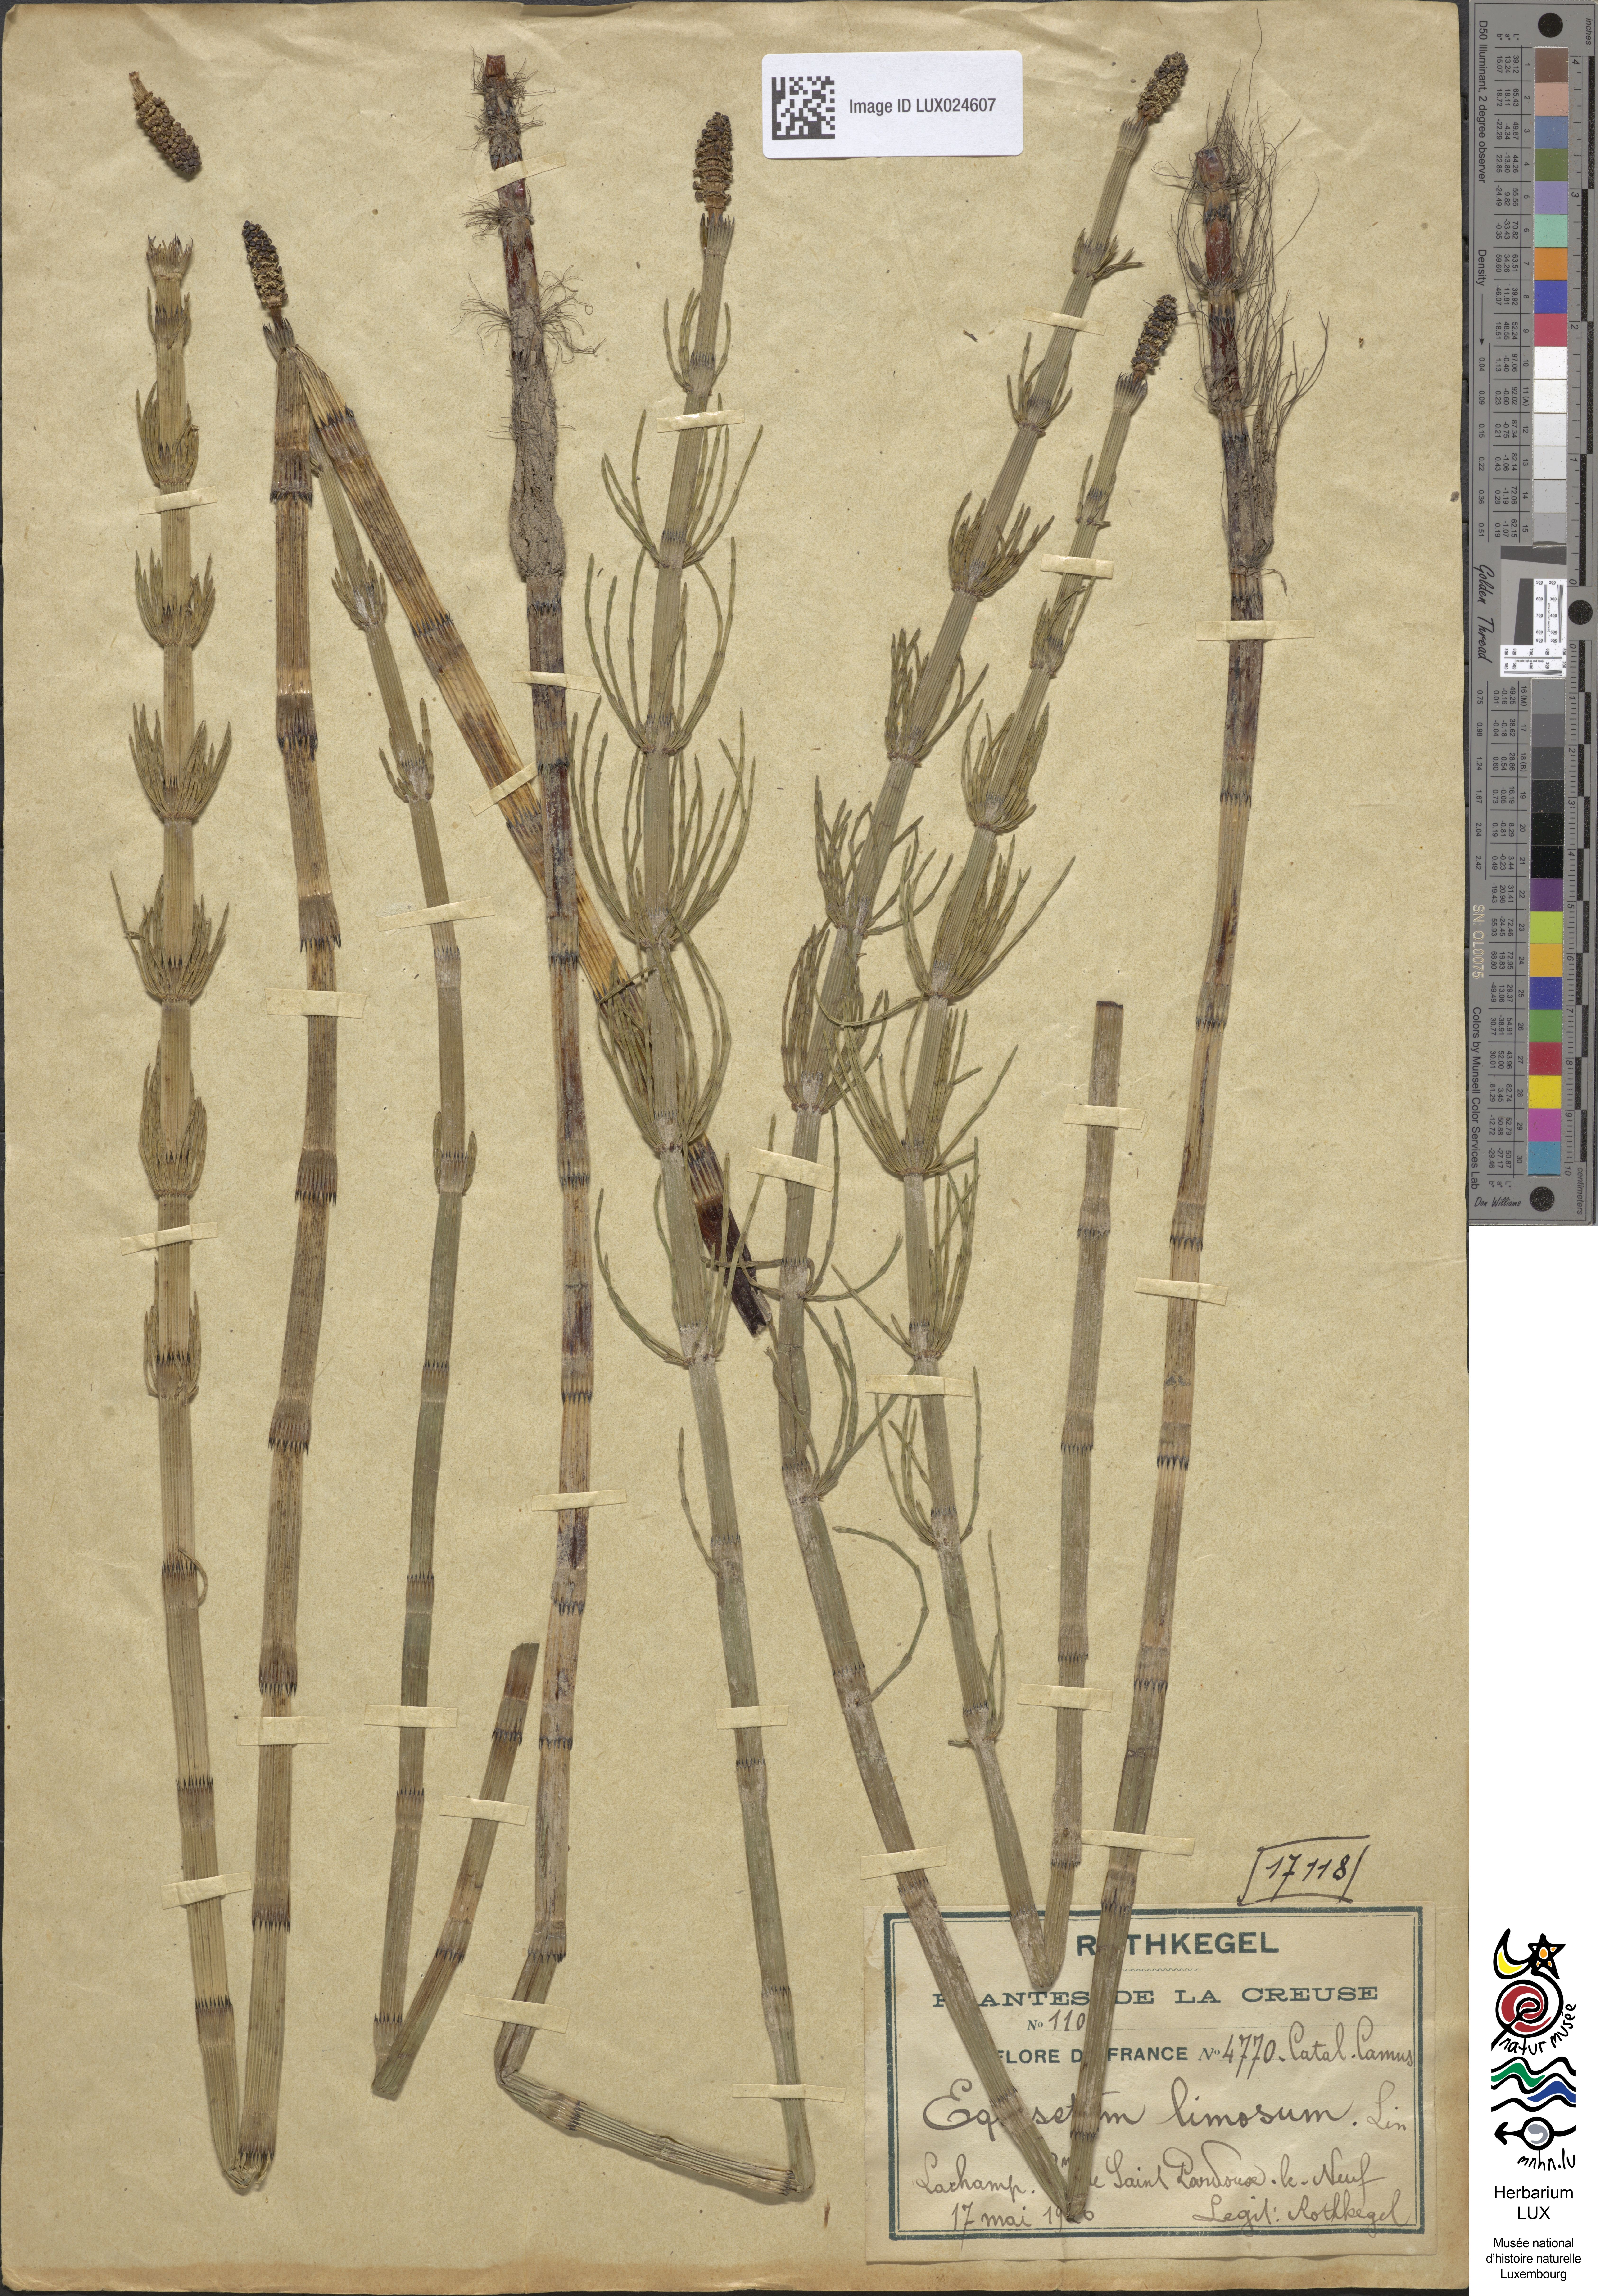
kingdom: Plantae
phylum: Tracheophyta
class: Polypodiopsida
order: Equisetales
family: Equisetaceae
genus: Equisetum
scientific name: Equisetum fluviatile
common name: Water horsetail
